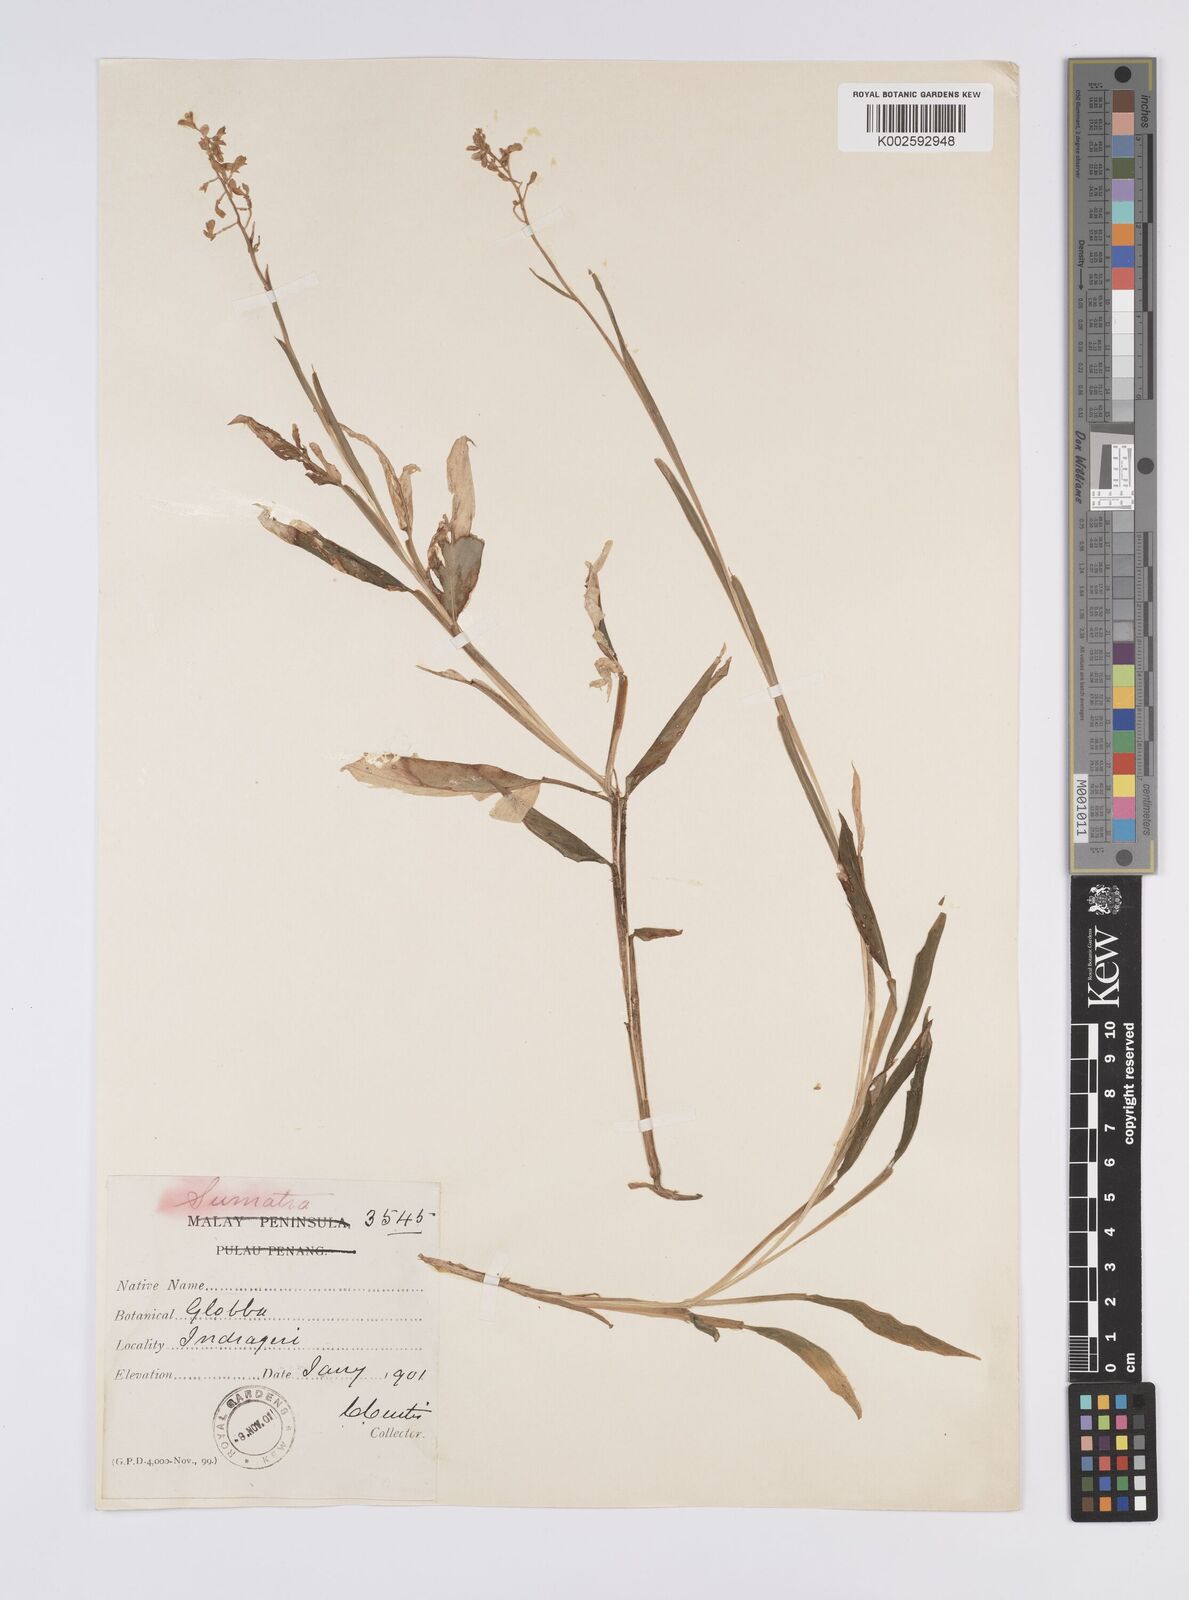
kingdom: Plantae
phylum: Tracheophyta
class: Liliopsida
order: Zingiberales
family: Zingiberaceae
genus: Globba
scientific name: Globba pendula
